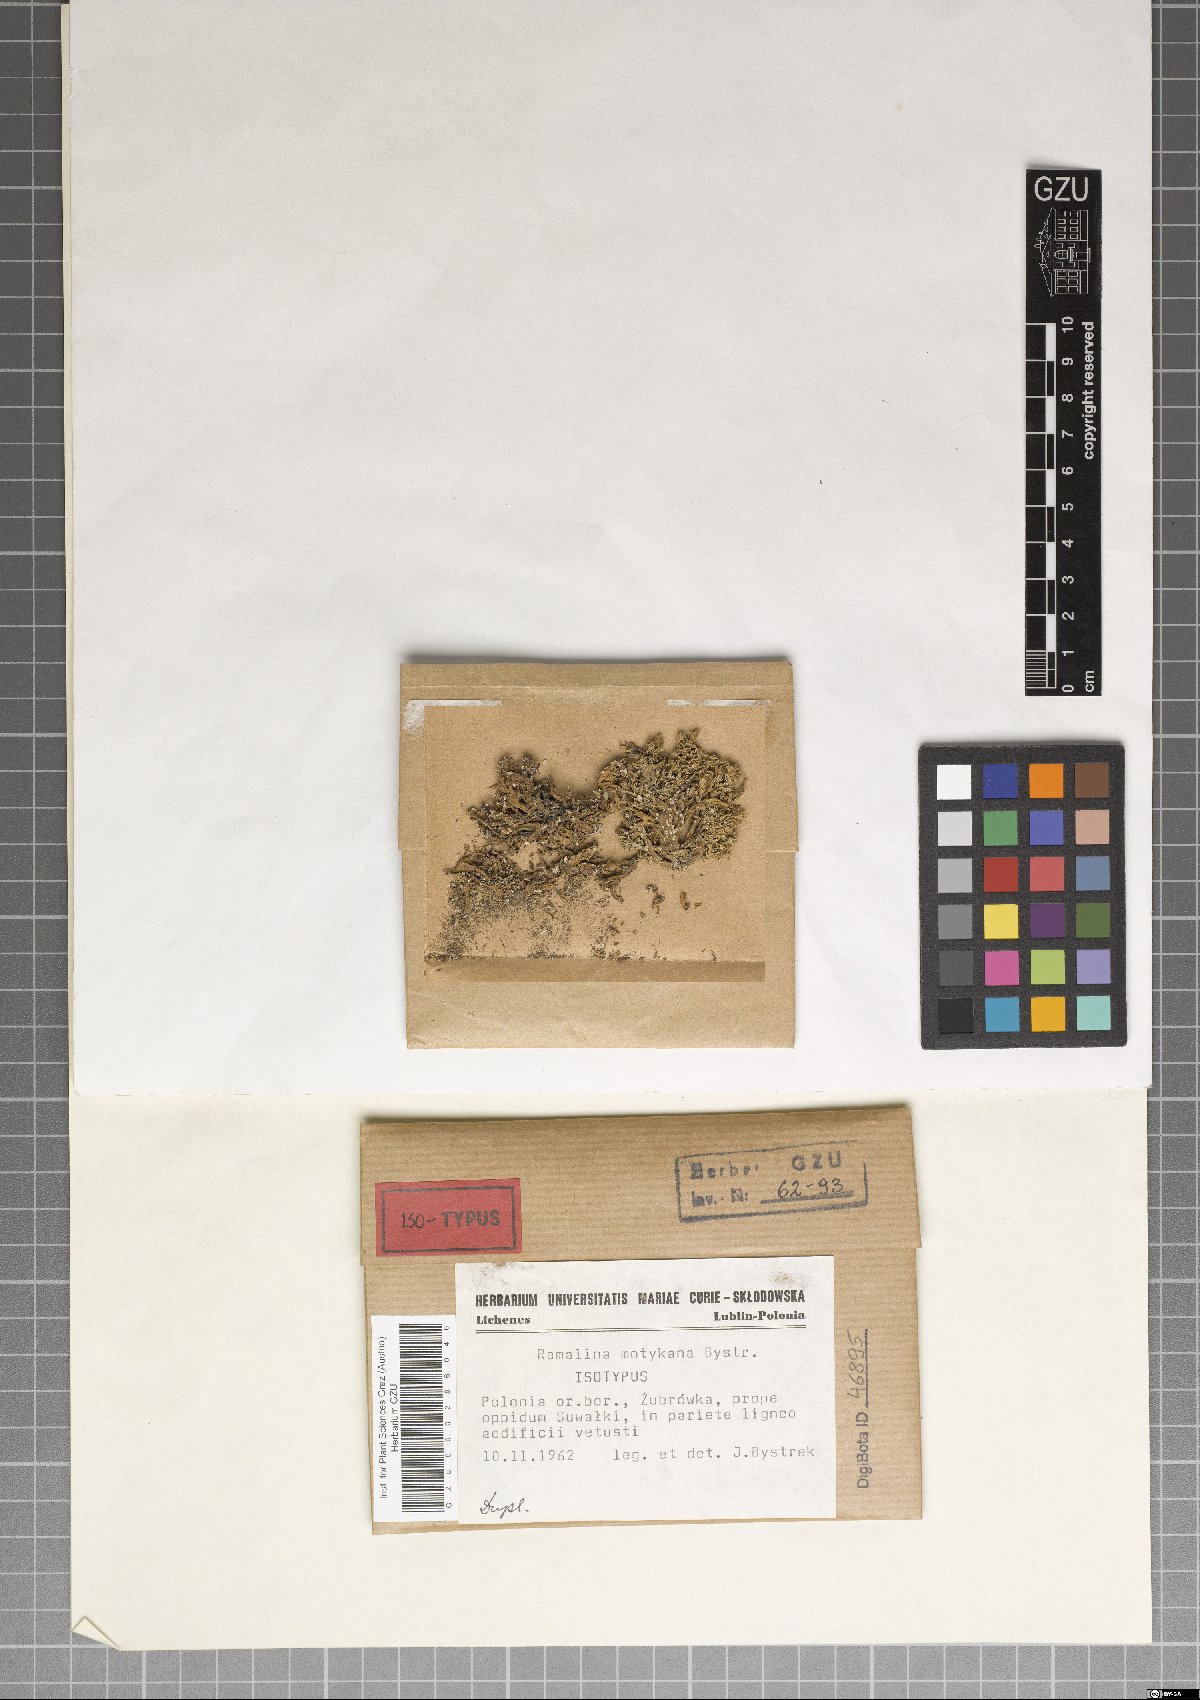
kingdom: Fungi
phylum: Ascomycota
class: Lecanoromycetes
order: Lecanorales
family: Ramalinaceae
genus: Ramalina
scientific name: Ramalina motykana
